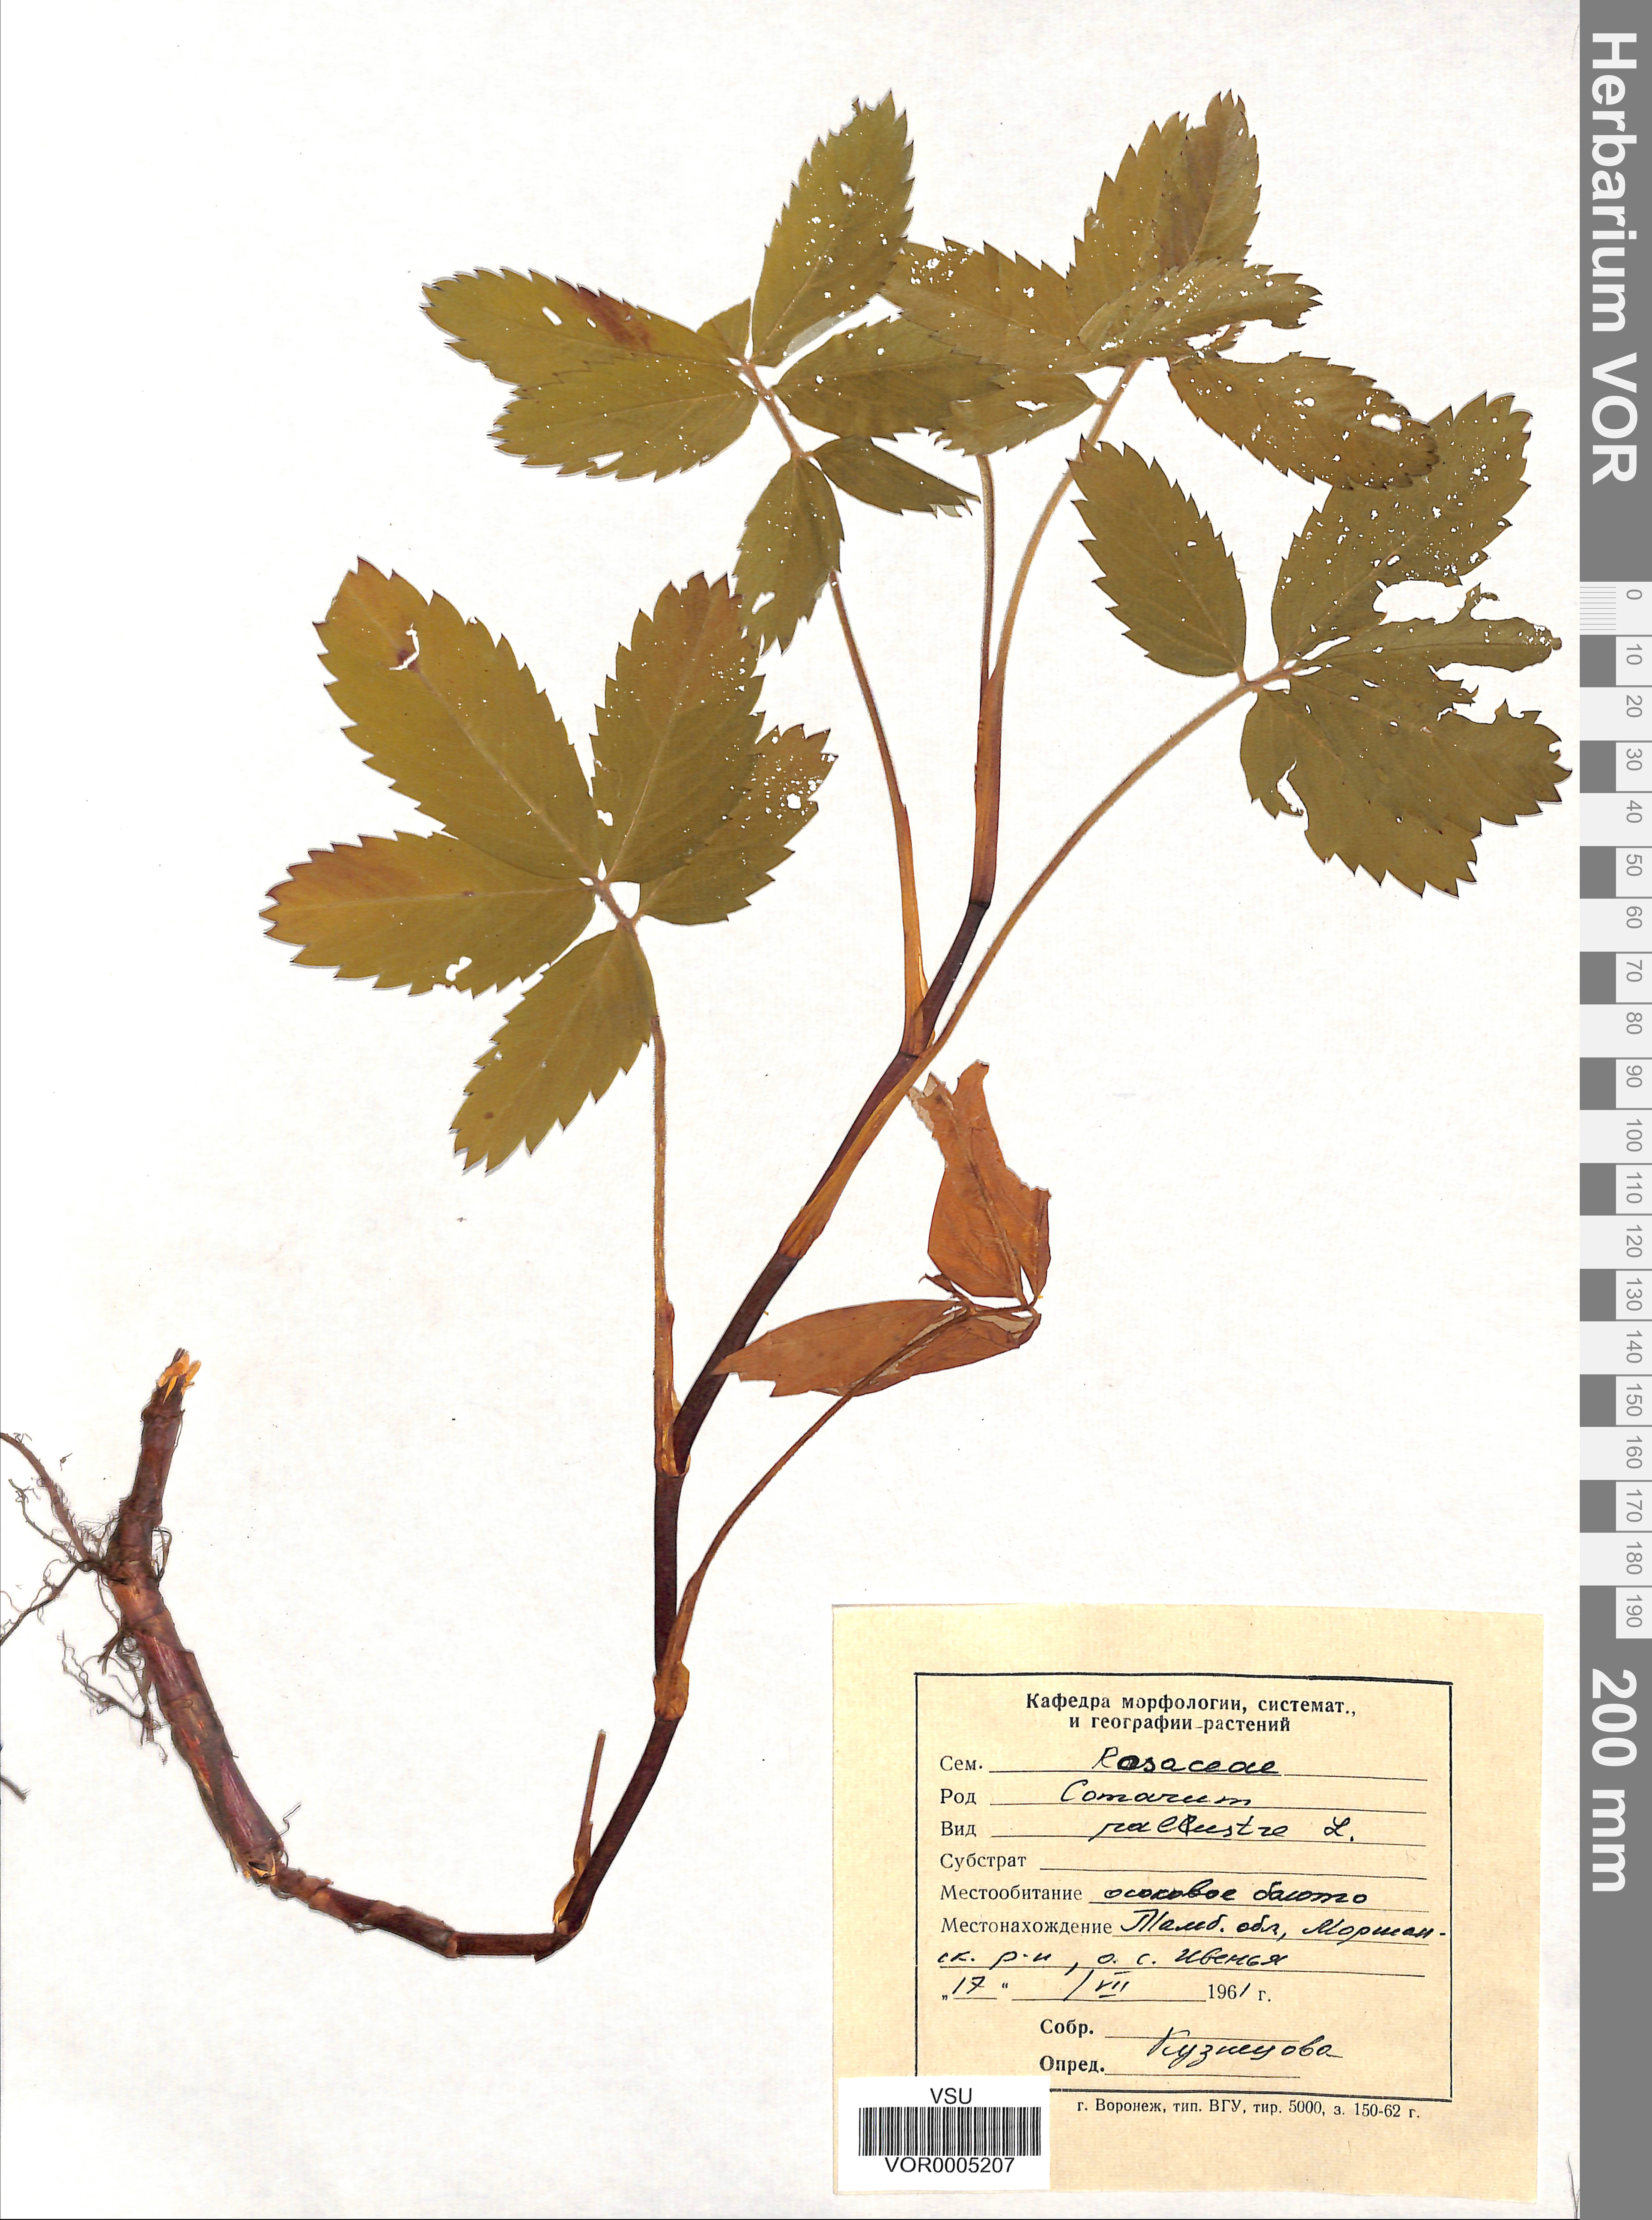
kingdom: Plantae
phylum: Tracheophyta
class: Magnoliopsida
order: Rosales
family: Rosaceae
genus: Comarum
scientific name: Comarum palustre
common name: Marsh cinquefoil
